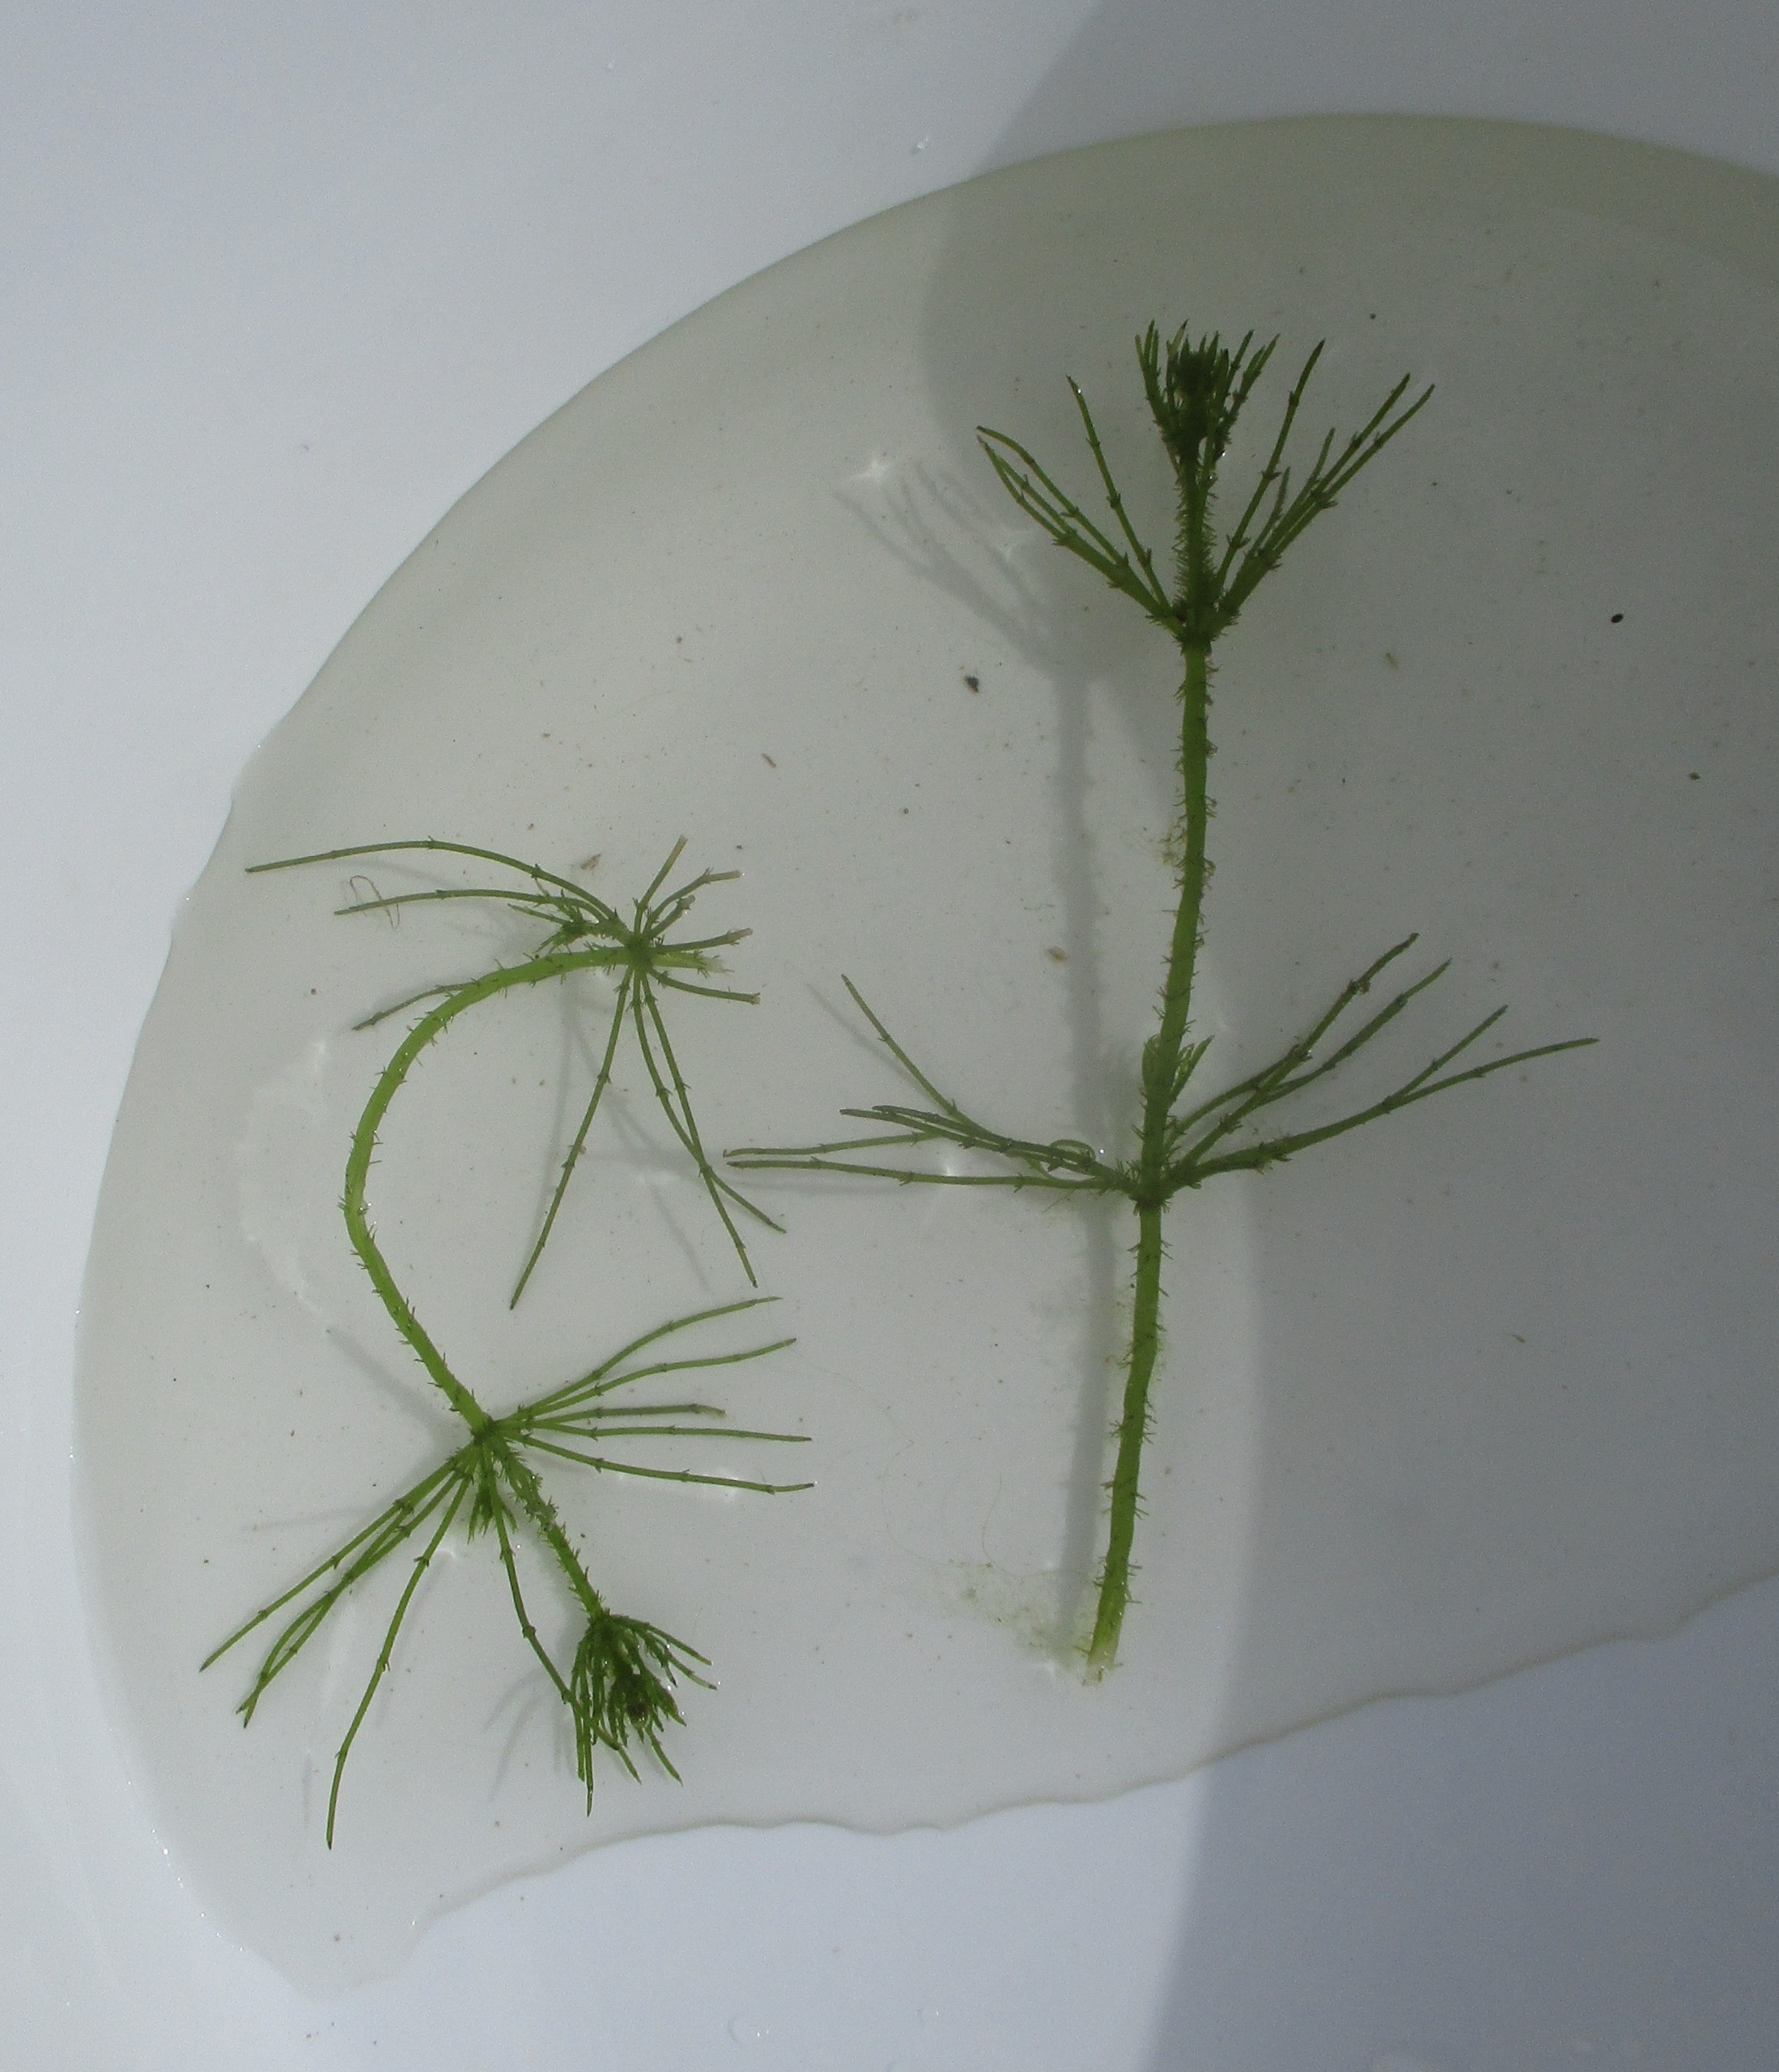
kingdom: Plantae
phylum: Charophyta
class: Charophyceae
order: Charales
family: Characeae
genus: Chara
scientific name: Chara
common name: Kransnålalgeslægten
